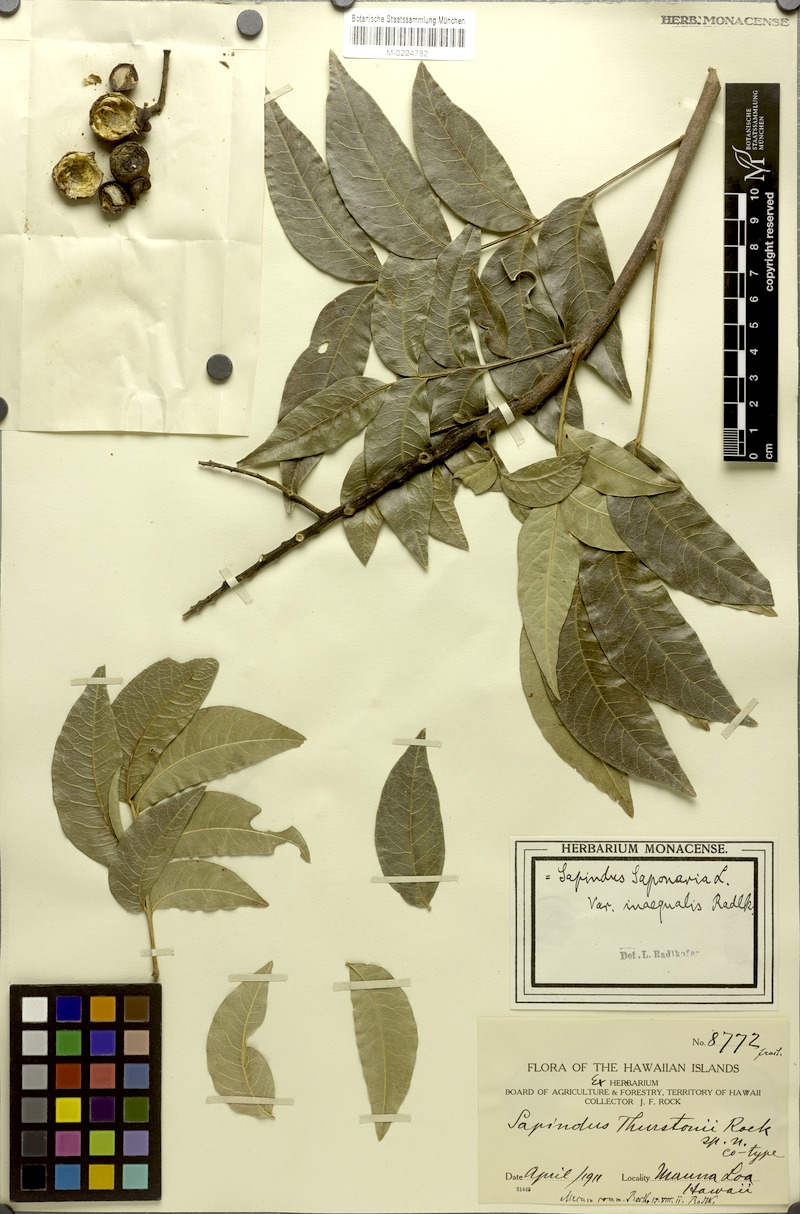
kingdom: Plantae
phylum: Tracheophyta
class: Magnoliopsida
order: Sapindales
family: Sapindaceae
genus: Sapindus
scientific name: Sapindus saponaria
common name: Wingleaf soapberry
